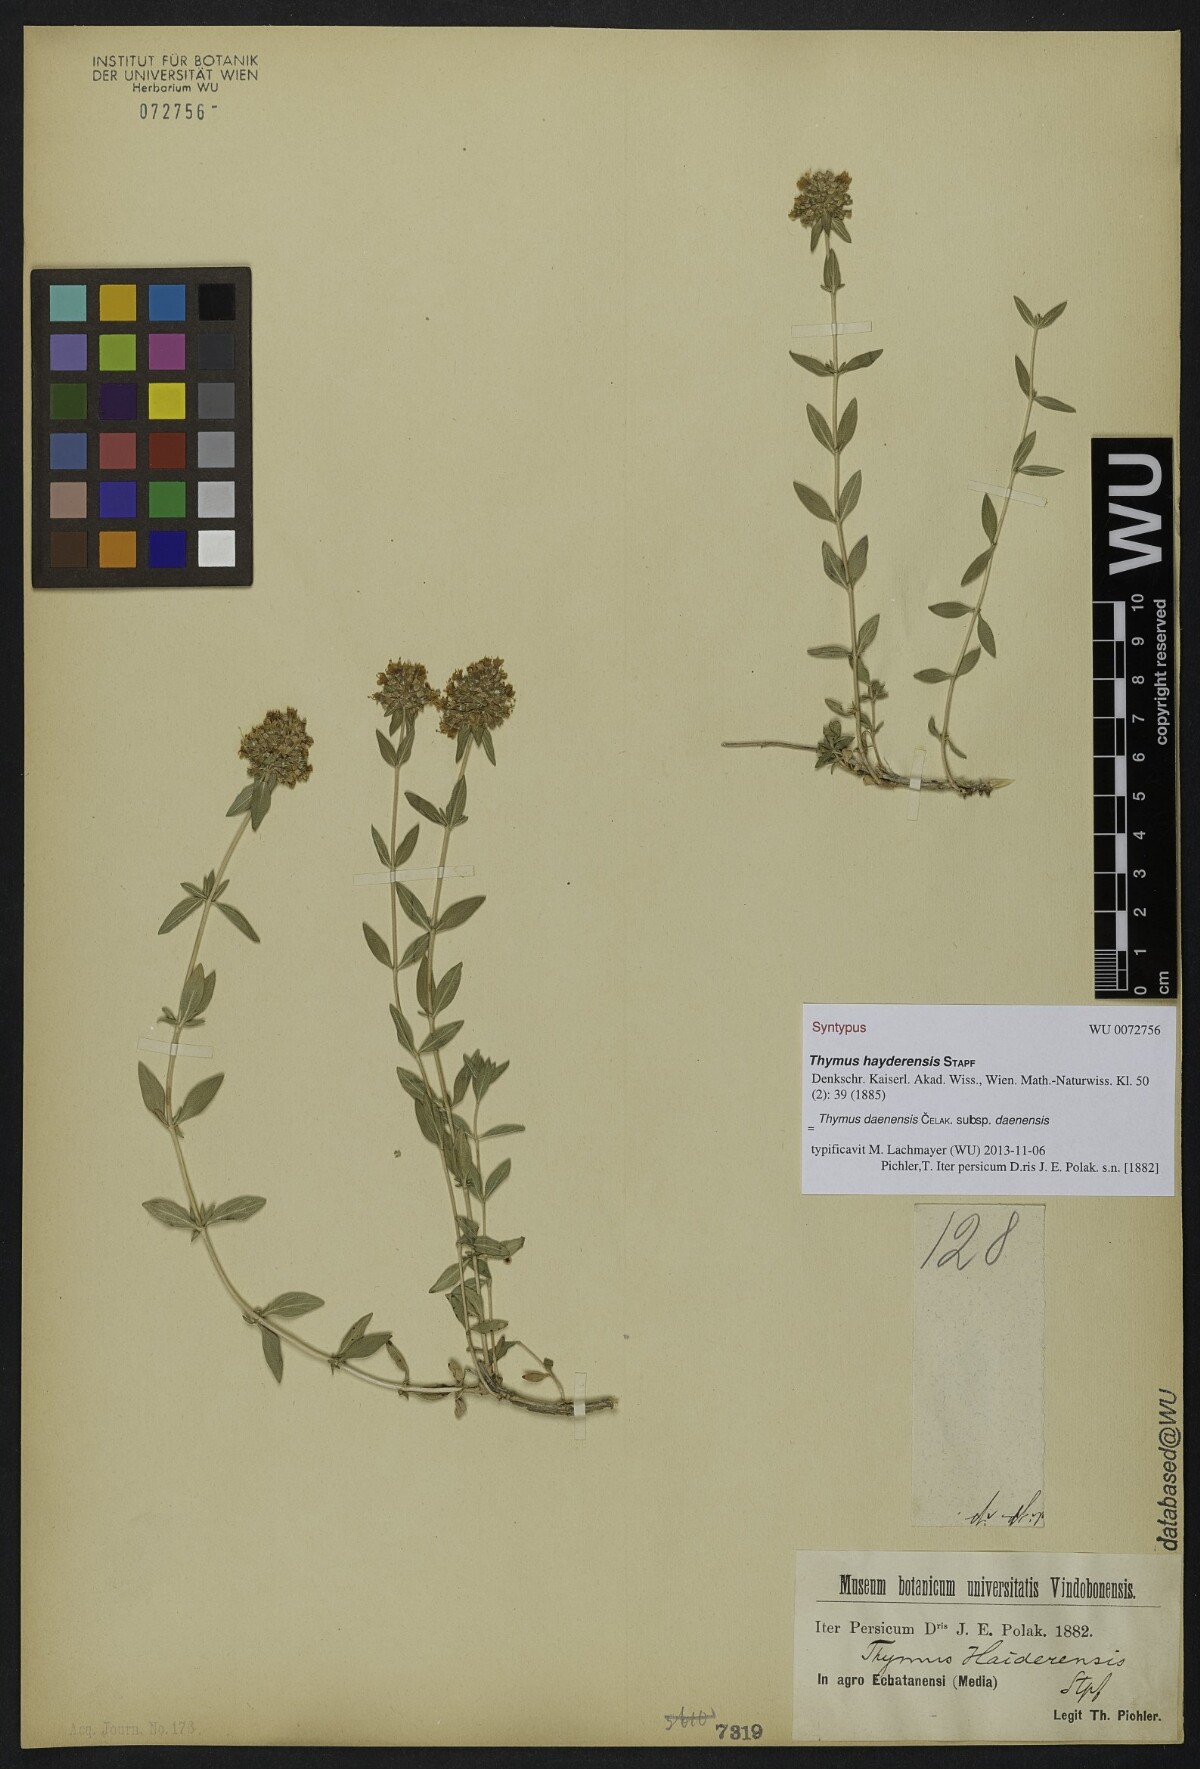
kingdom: Plantae
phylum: Tracheophyta
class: Magnoliopsida
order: Lamiales
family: Lamiaceae
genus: Thymus
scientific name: Thymus daenensis
